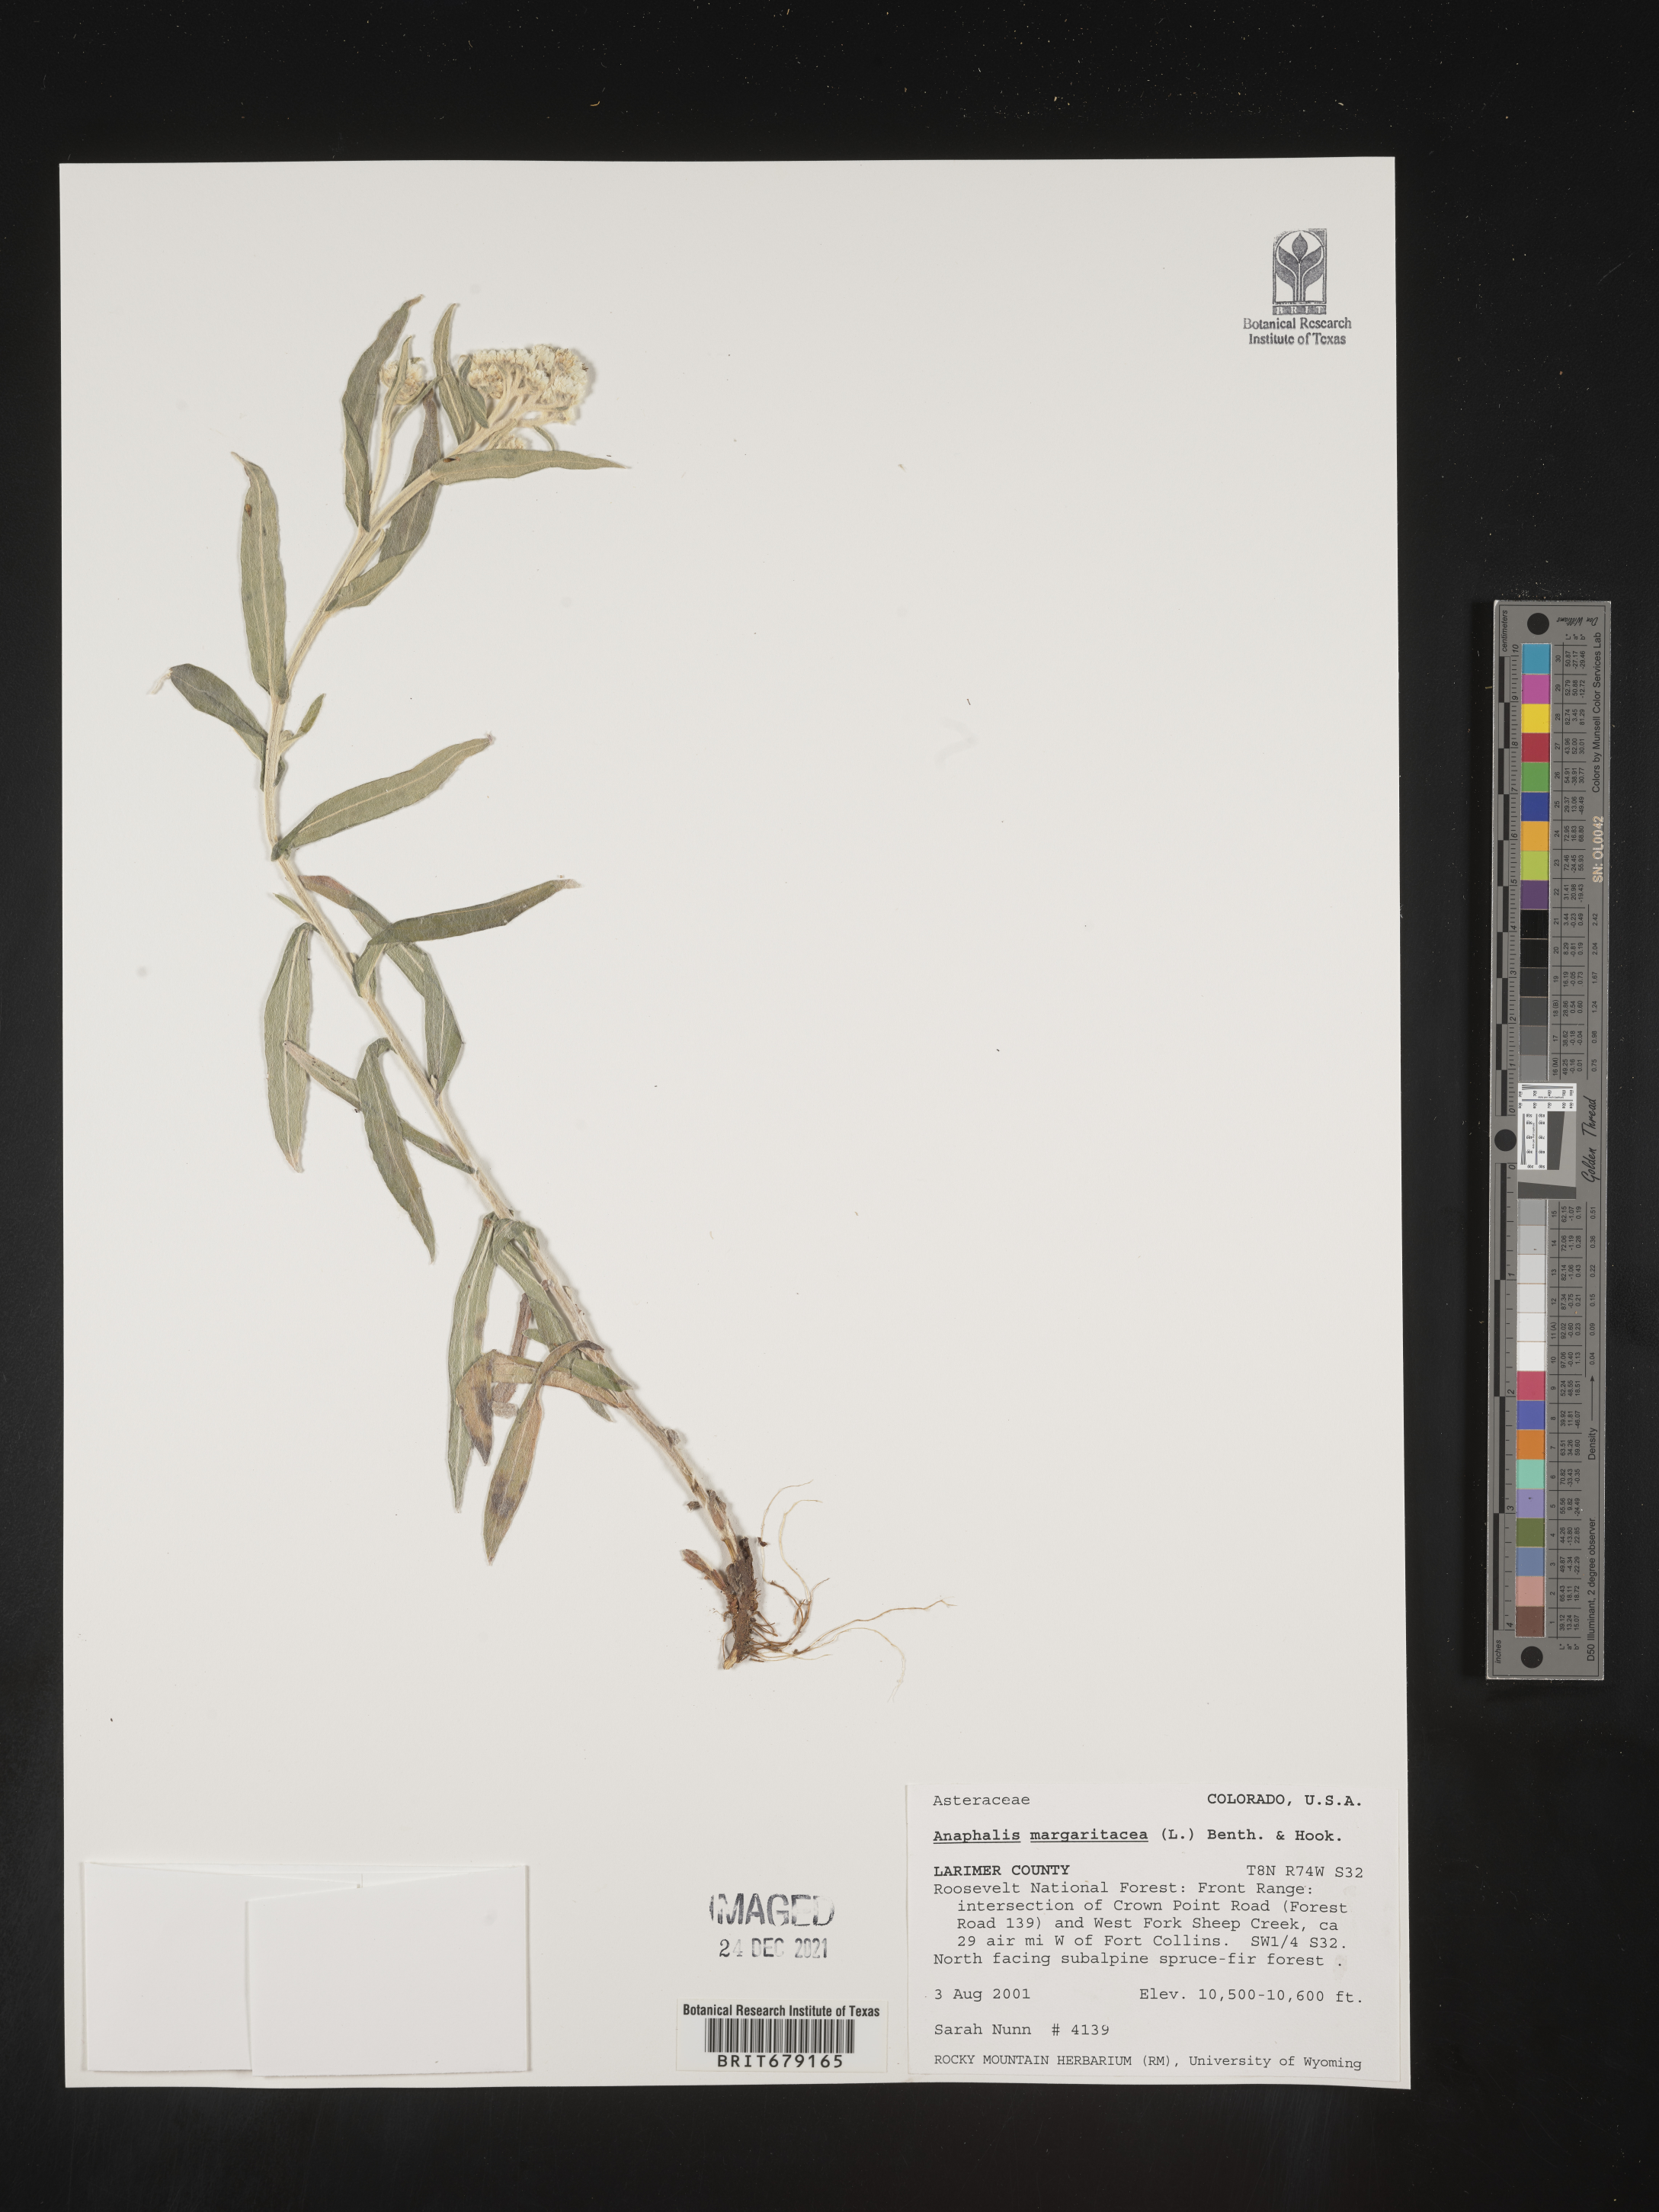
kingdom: Plantae
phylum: Tracheophyta
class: Magnoliopsida
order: Asterales
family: Asteraceae
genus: Anaphalis
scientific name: Anaphalis margaritacea
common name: Pearly everlasting
